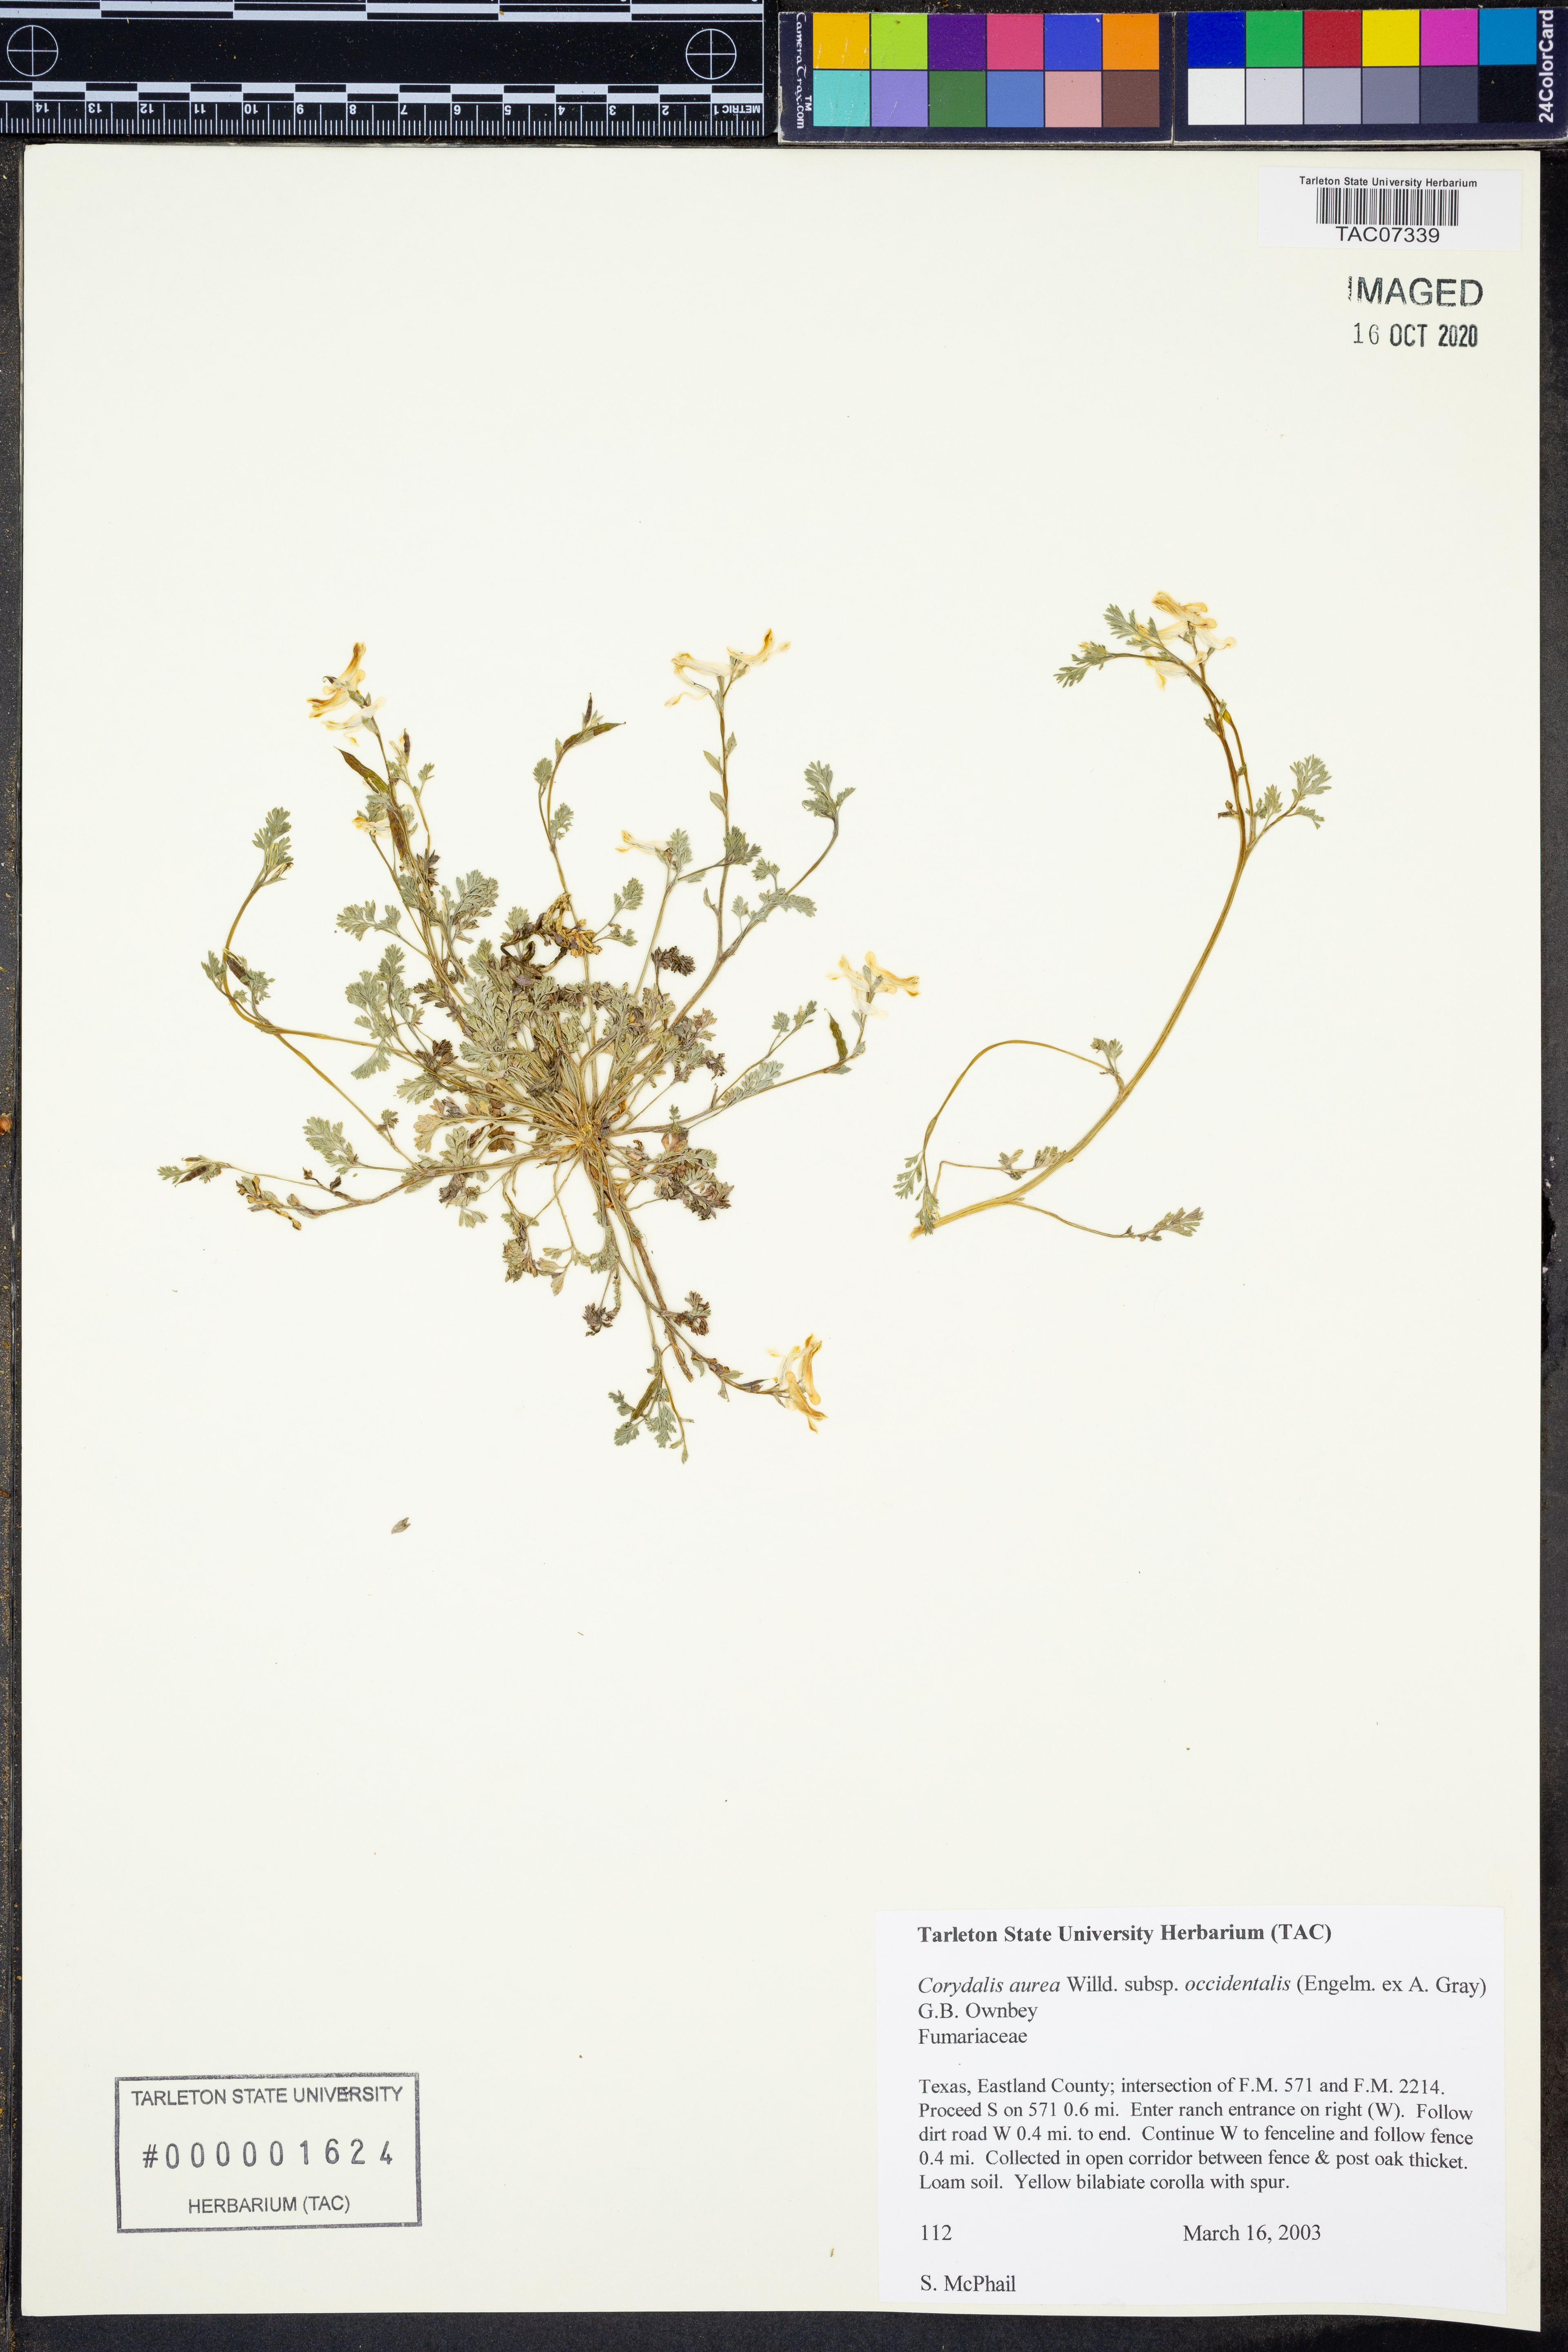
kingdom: Plantae
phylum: Tracheophyta
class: Magnoliopsida
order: Ranunculales
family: Papaveraceae
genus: Corydalis
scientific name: Corydalis curvisiliqua
